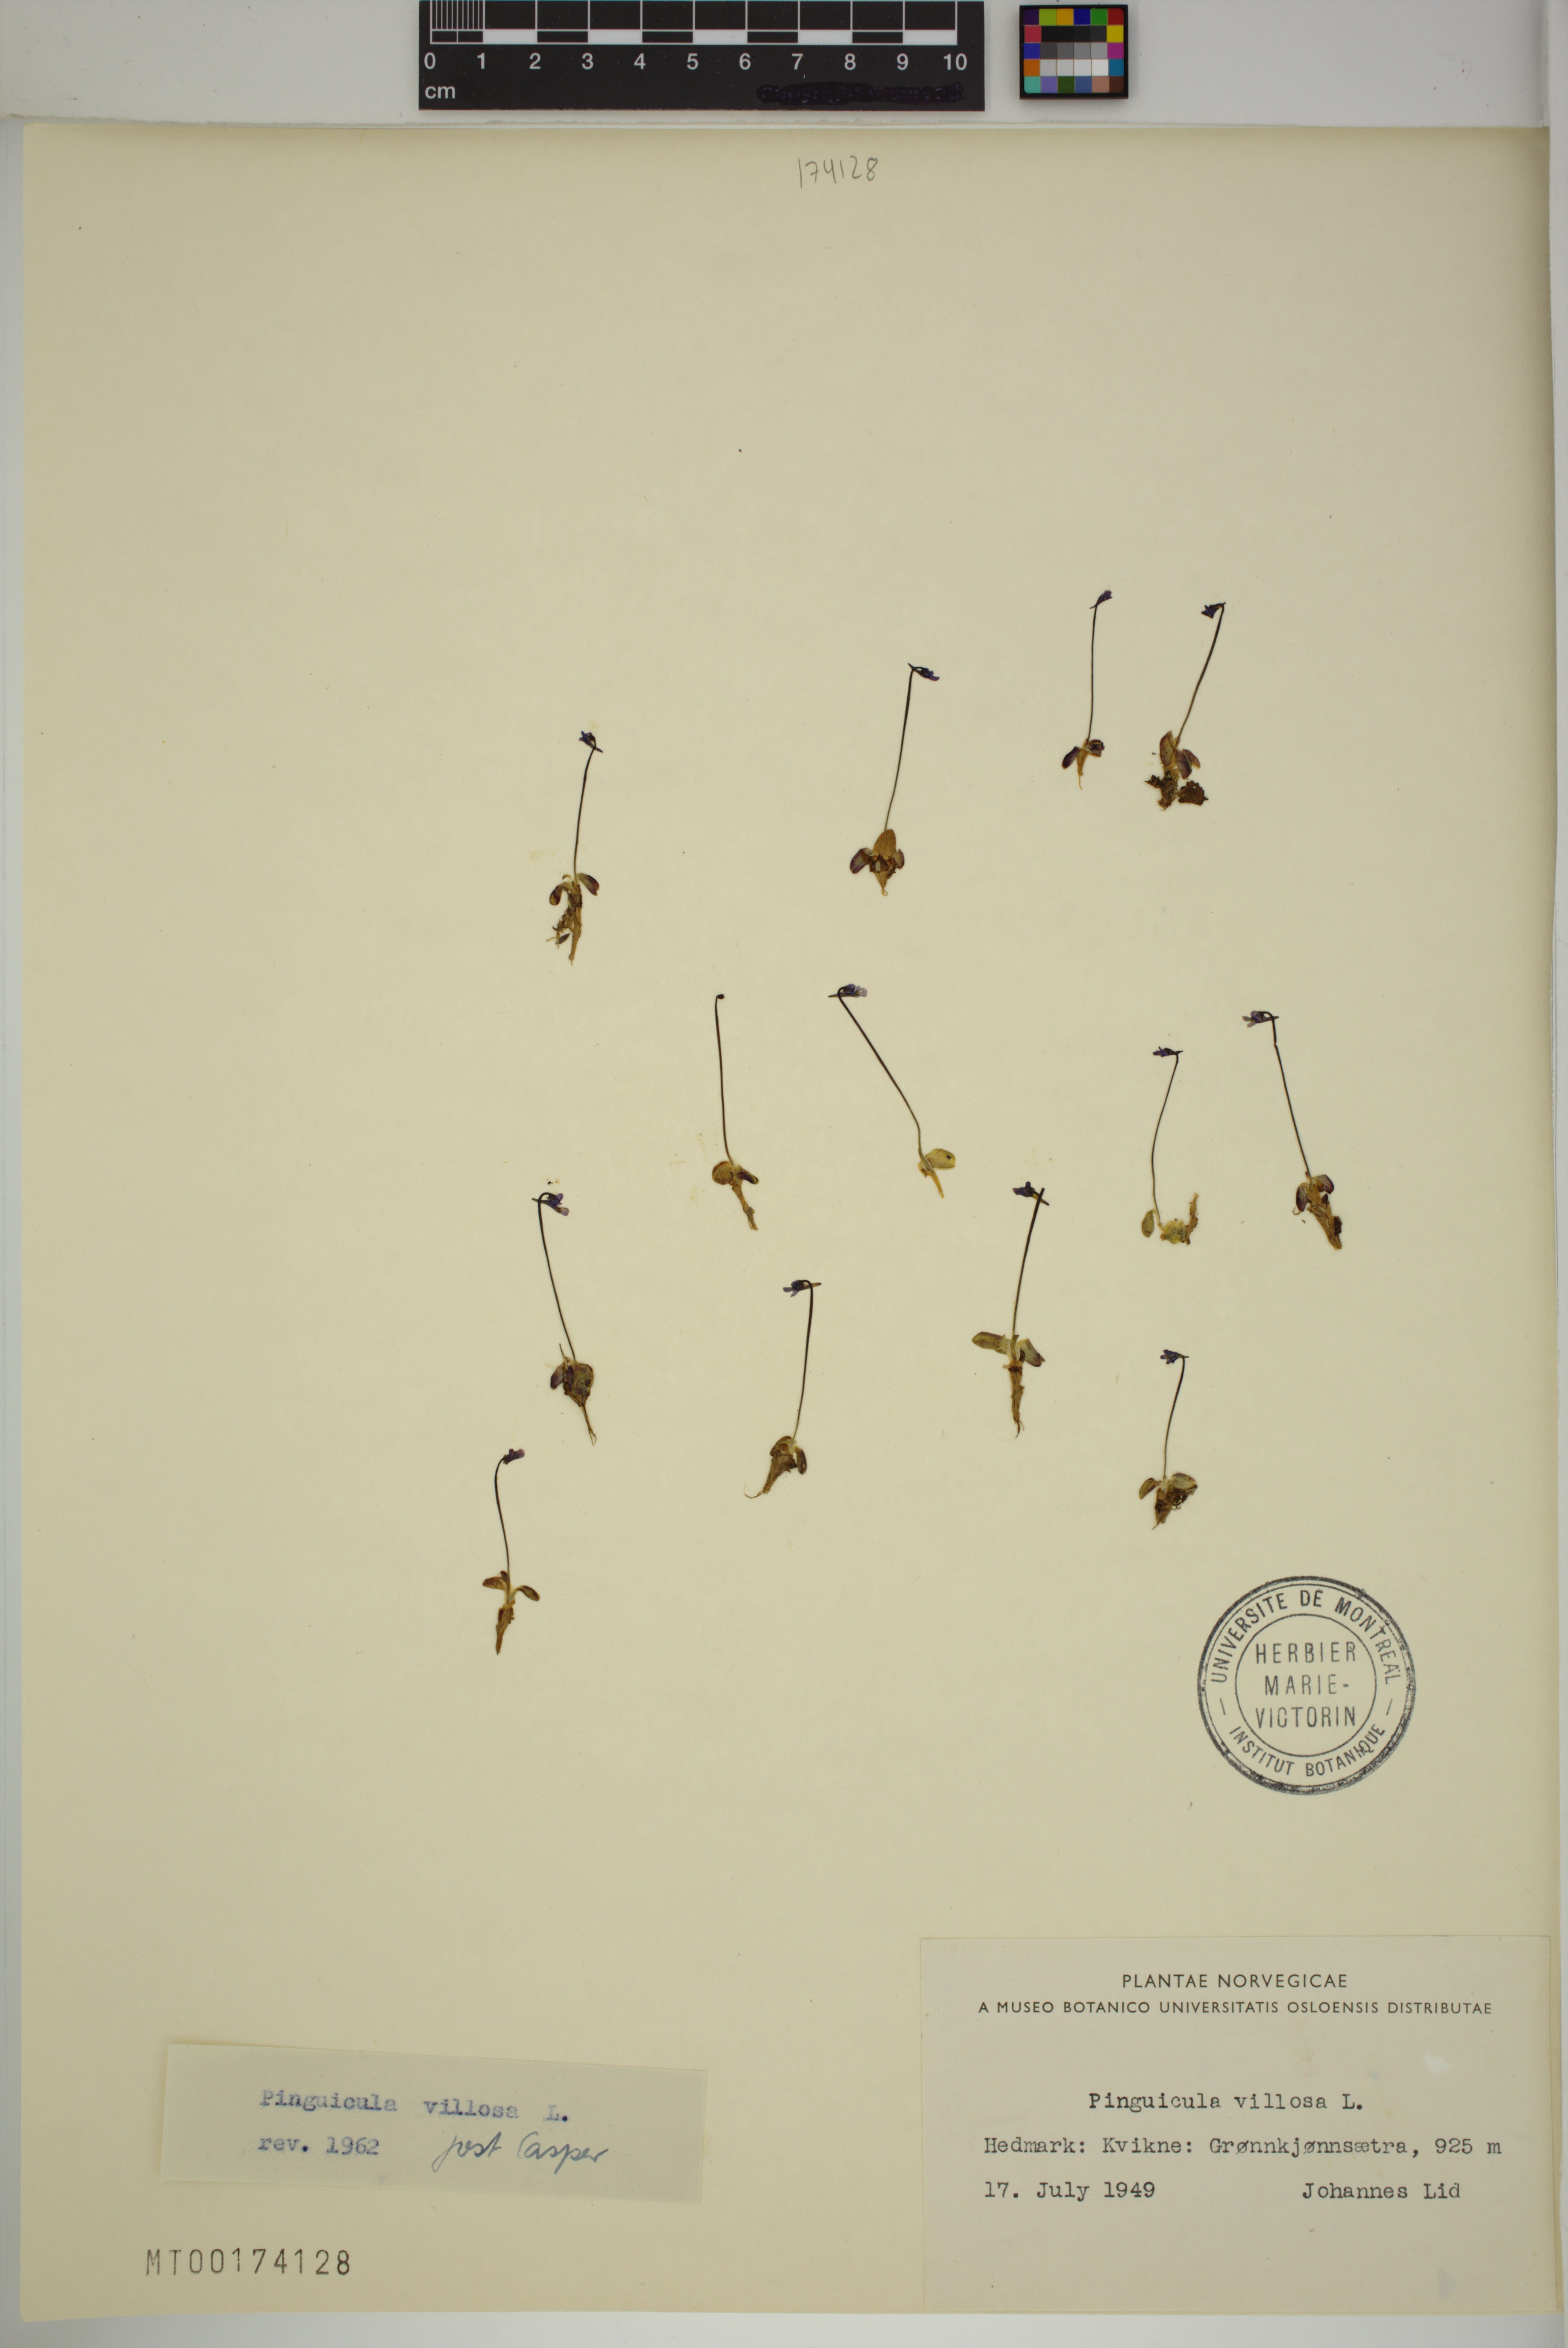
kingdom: Plantae
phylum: Tracheophyta
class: Magnoliopsida
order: Lamiales
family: Lentibulariaceae
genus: Pinguicula
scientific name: Pinguicula villosa
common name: Hairy butterwort
